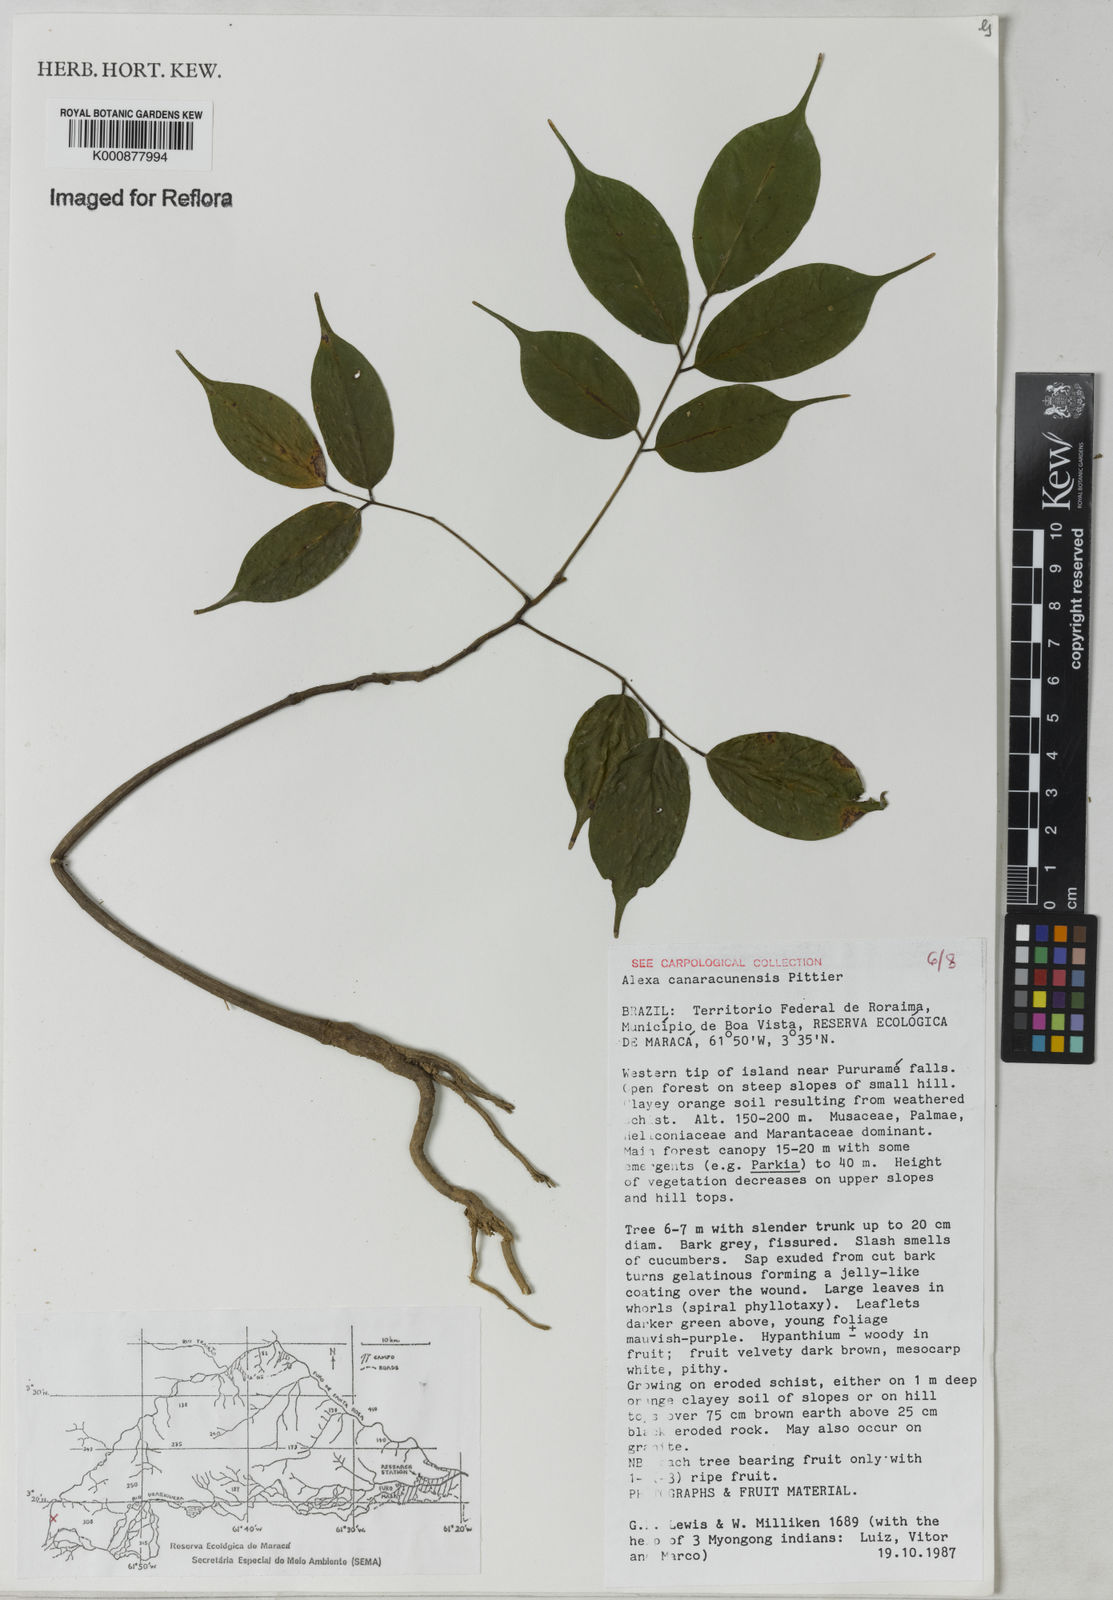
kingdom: Plantae
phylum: Tracheophyta
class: Magnoliopsida
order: Fabales
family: Fabaceae
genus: Alexa
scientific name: Alexa canaracunensis
